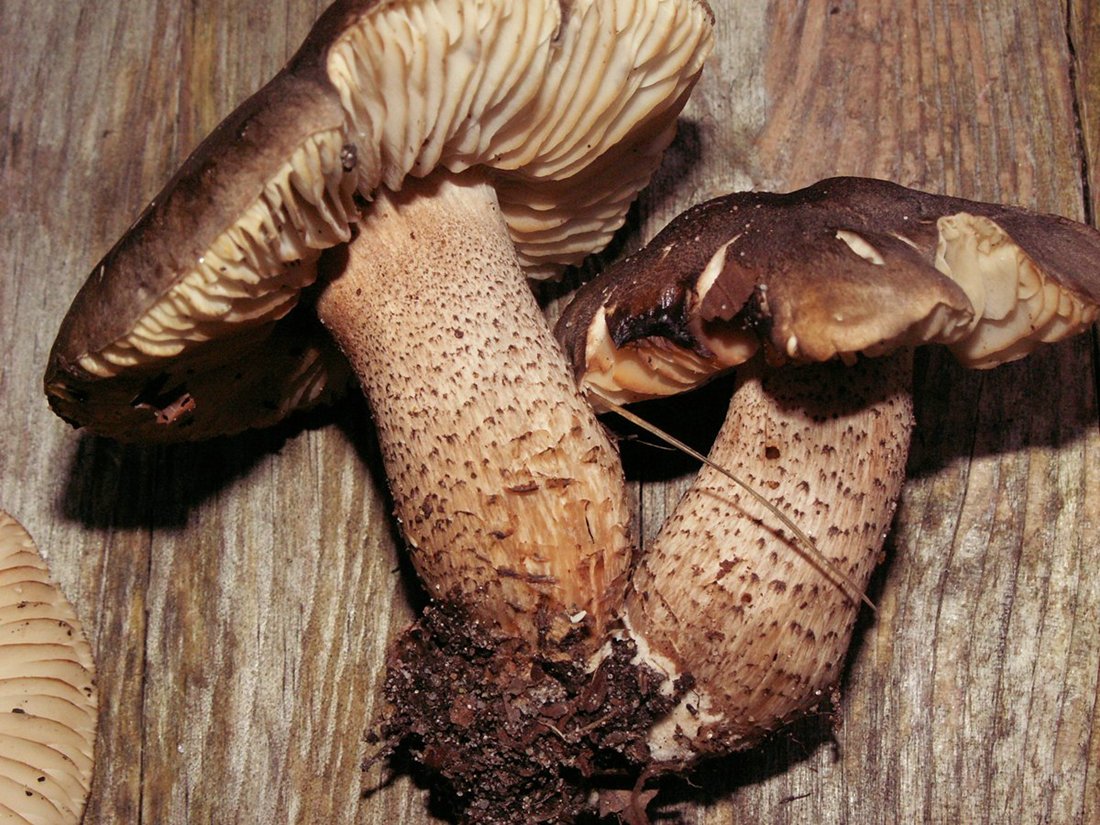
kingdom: Fungi
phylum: Basidiomycota
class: Agaricomycetes
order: Agaricales
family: Tricholomataceae
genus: Tricholoma
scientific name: Tricholoma saponaceum
